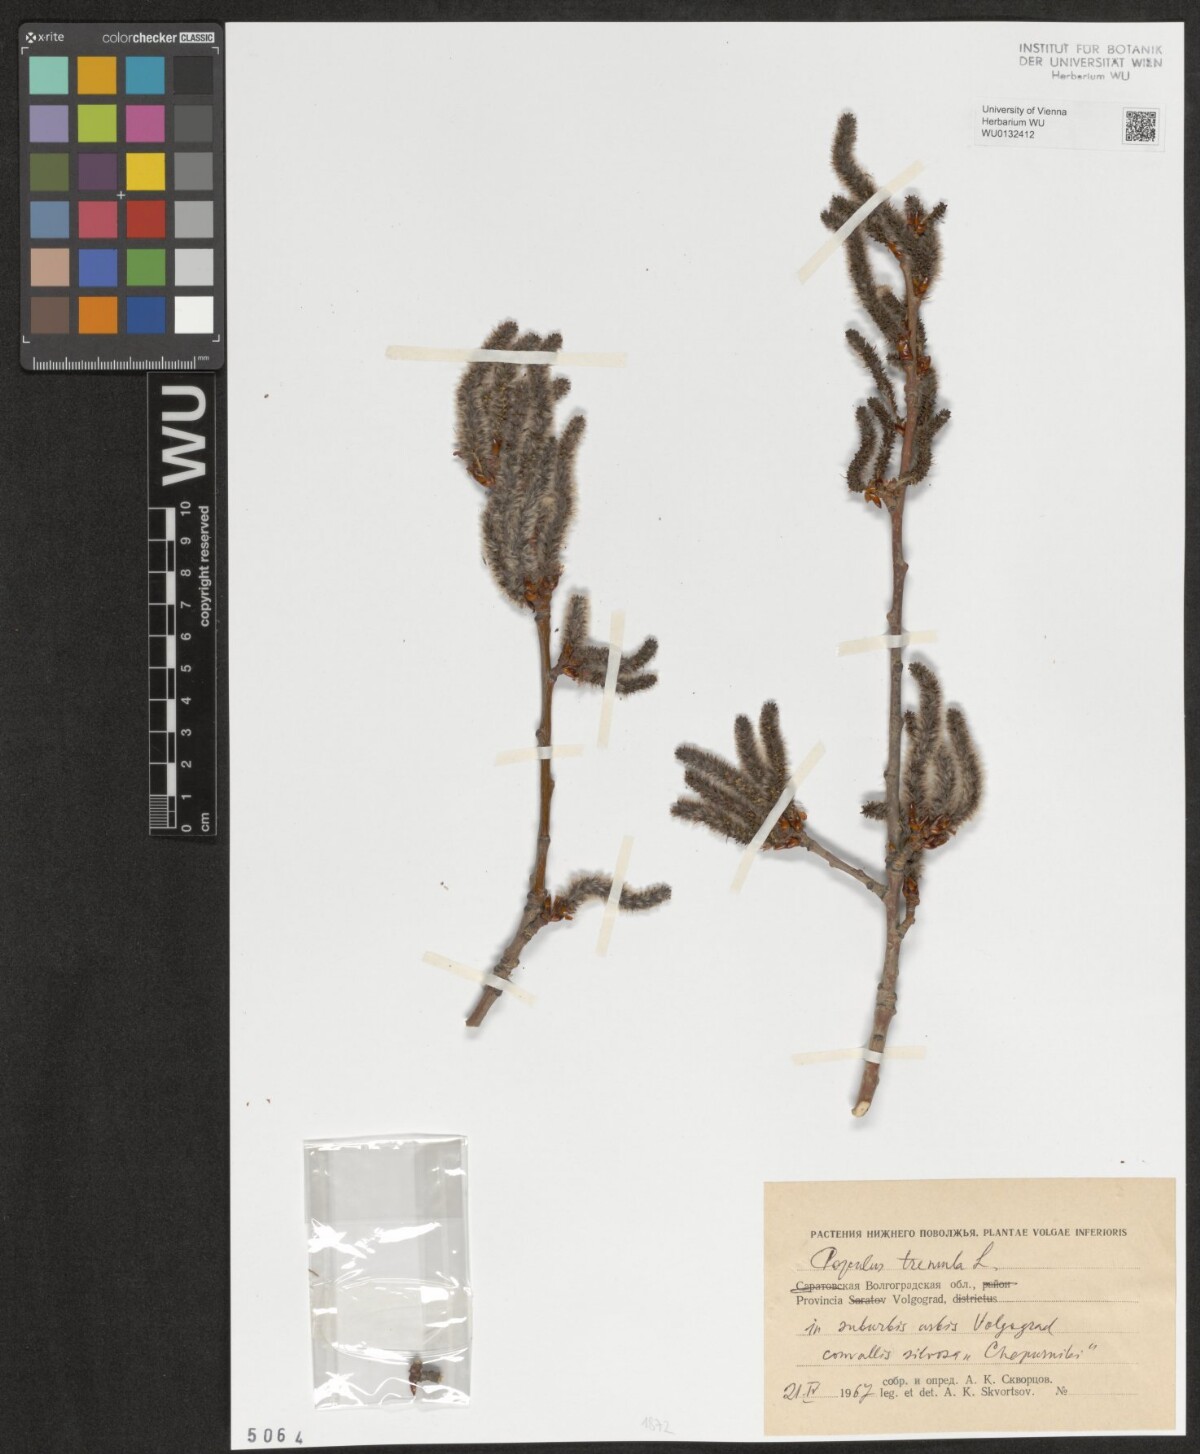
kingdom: Plantae
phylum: Tracheophyta
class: Magnoliopsida
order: Malpighiales
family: Salicaceae
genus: Populus
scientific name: Populus tremula
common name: European aspen
